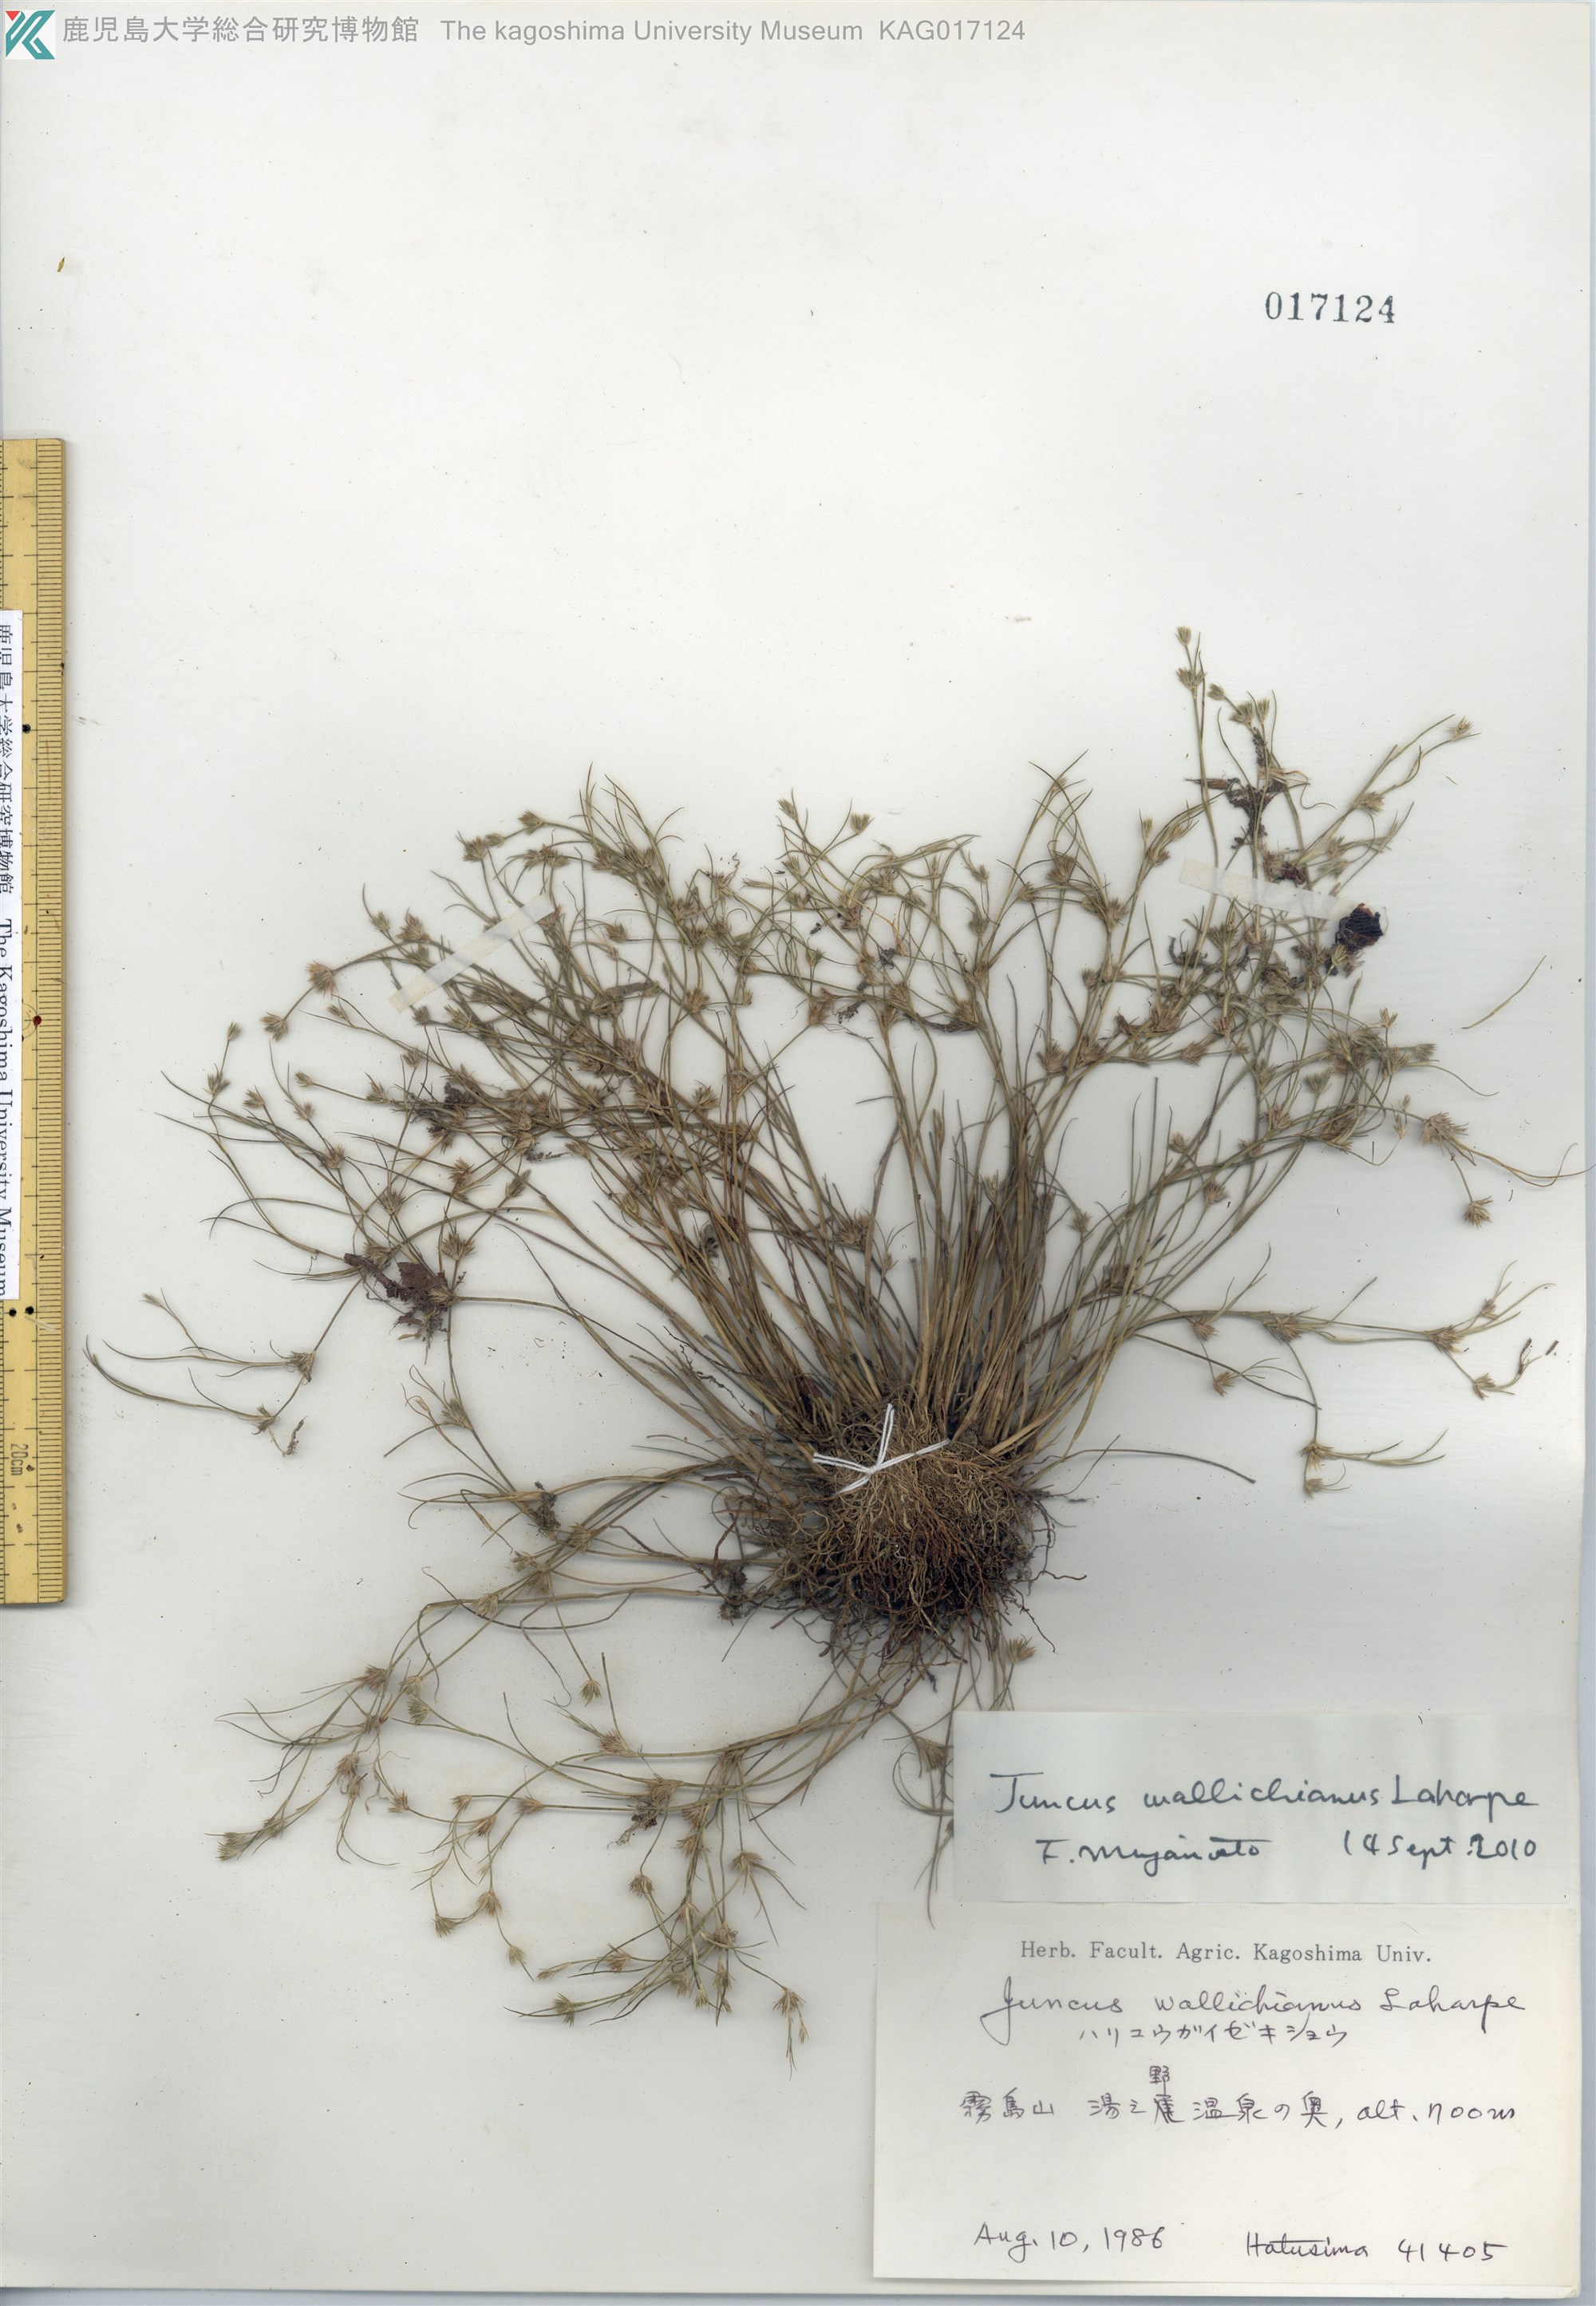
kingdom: Plantae
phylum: Tracheophyta
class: Liliopsida
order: Poales
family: Juncaceae
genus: Juncus
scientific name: Juncus wallichianus
